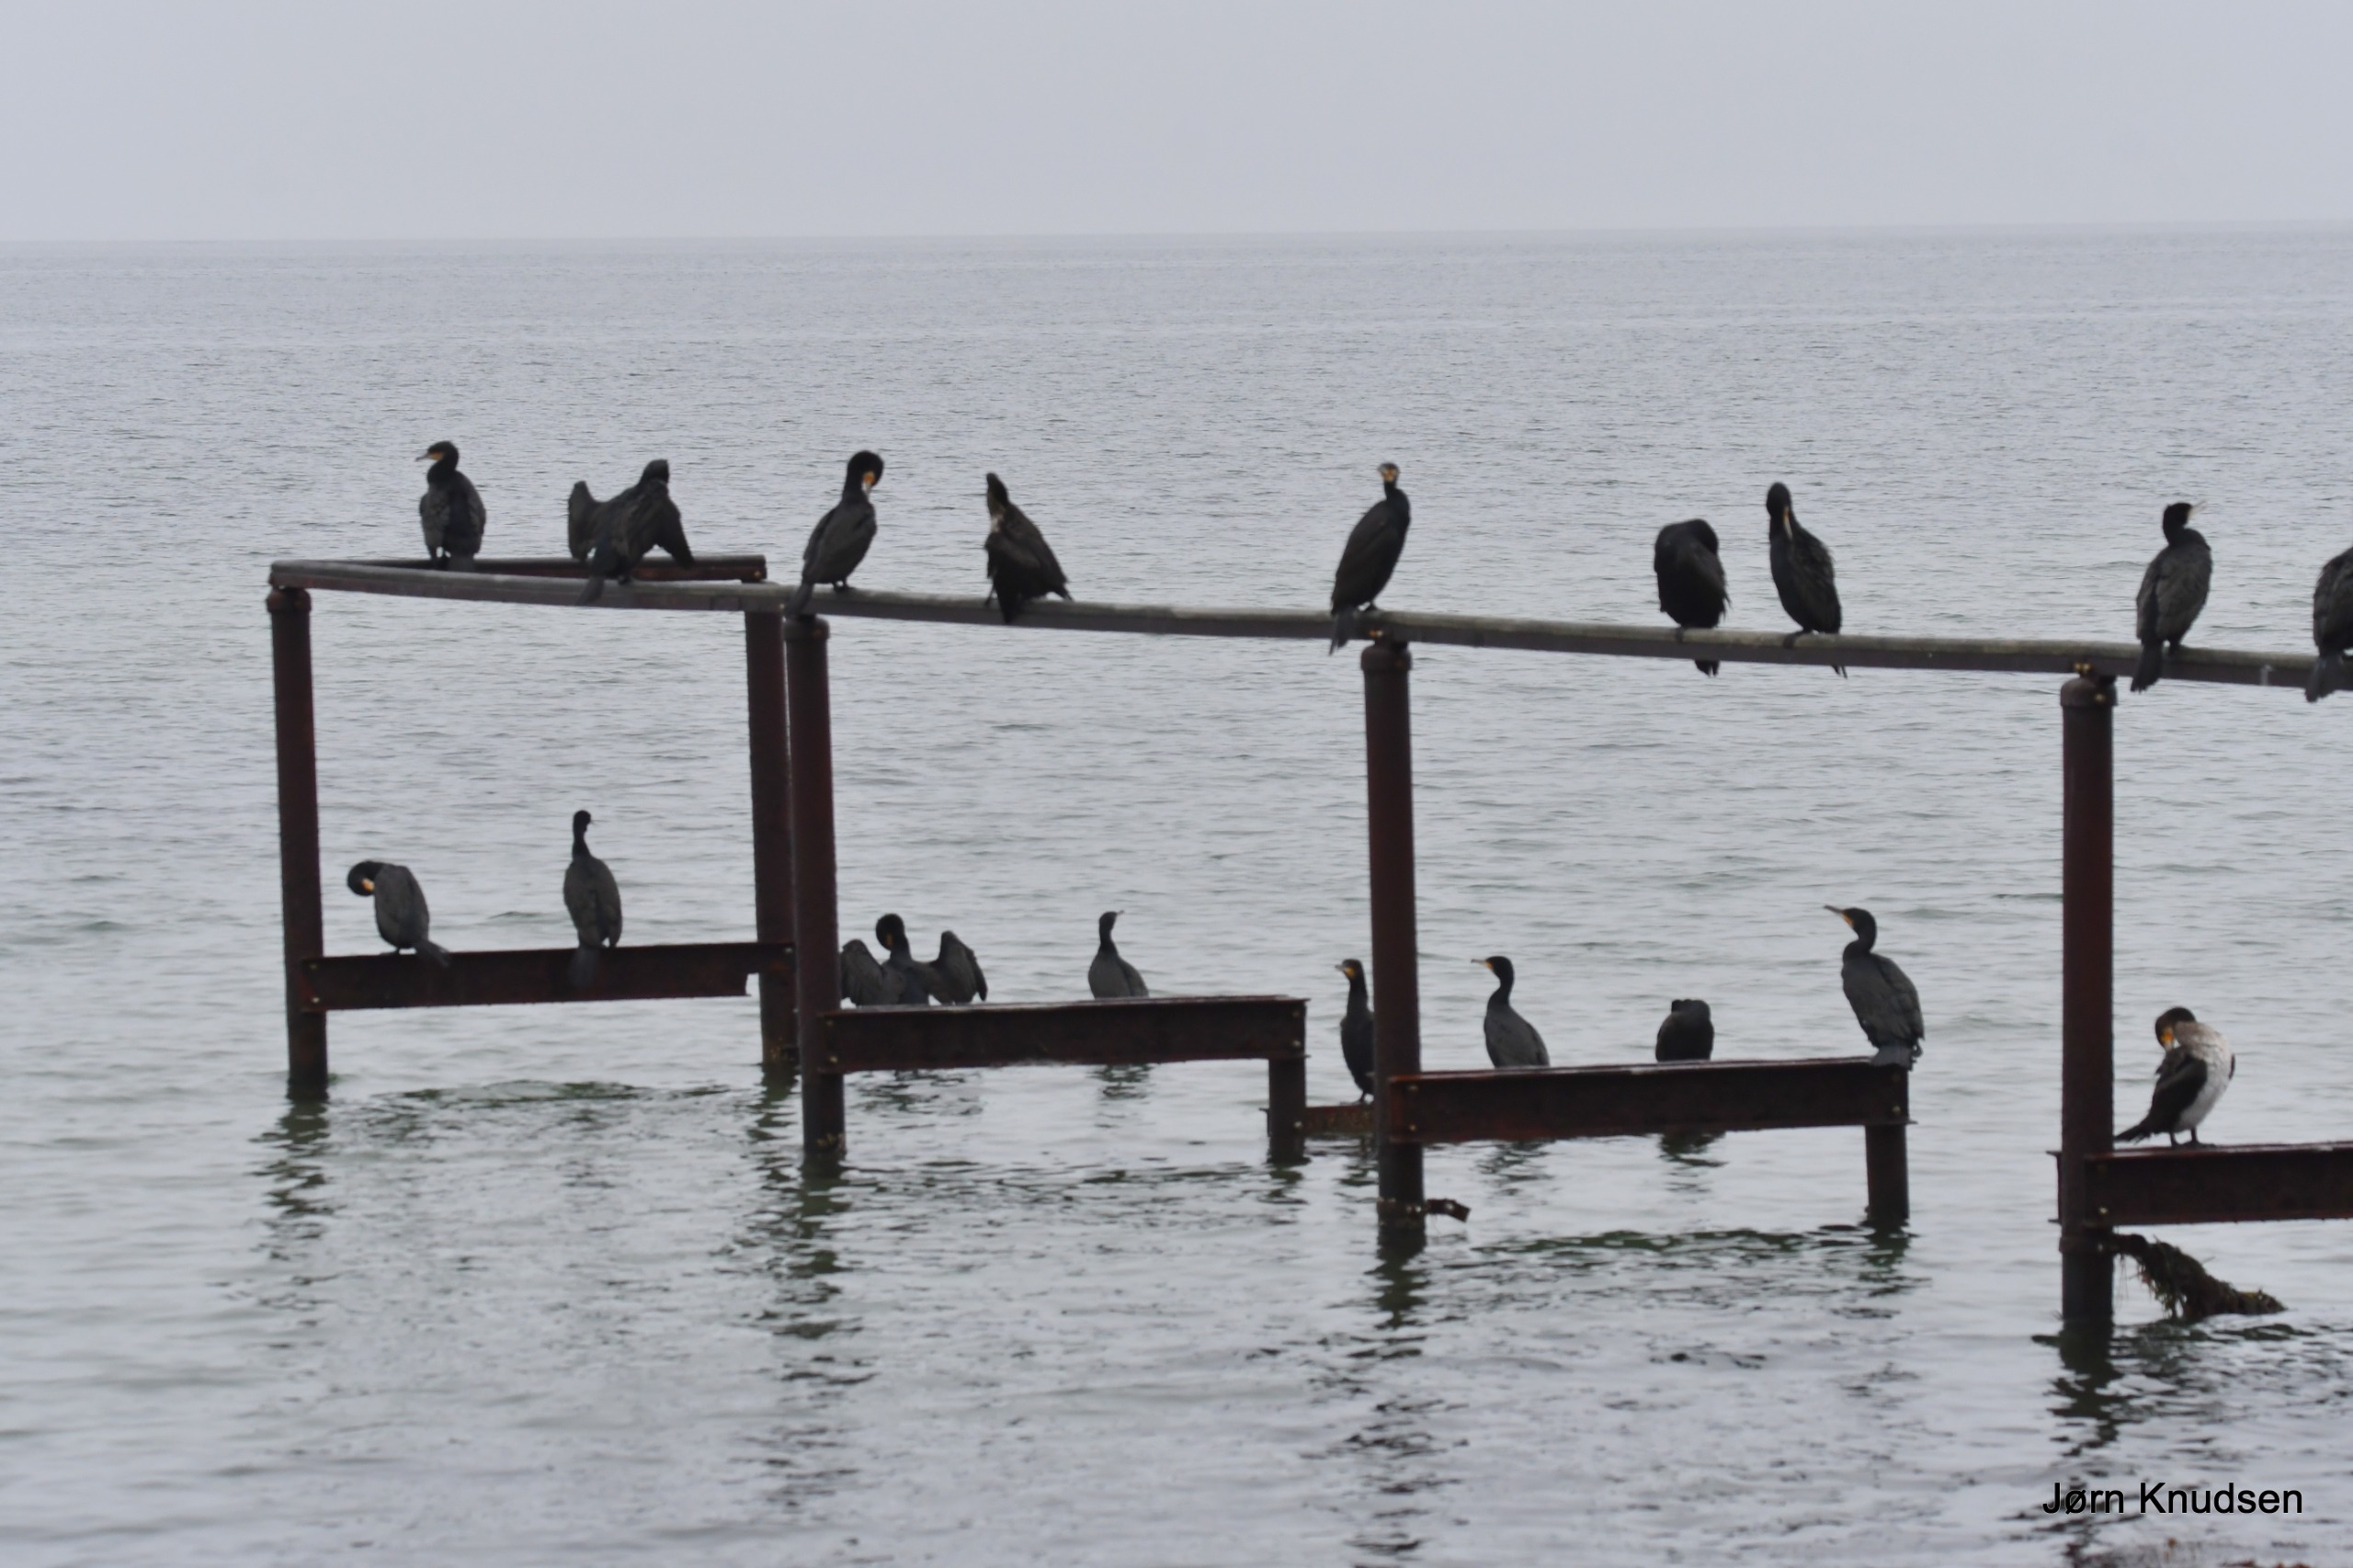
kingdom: Animalia
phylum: Chordata
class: Aves
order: Suliformes
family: Phalacrocoracidae
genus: Phalacrocorax
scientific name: Phalacrocorax carbo
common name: Skarv
